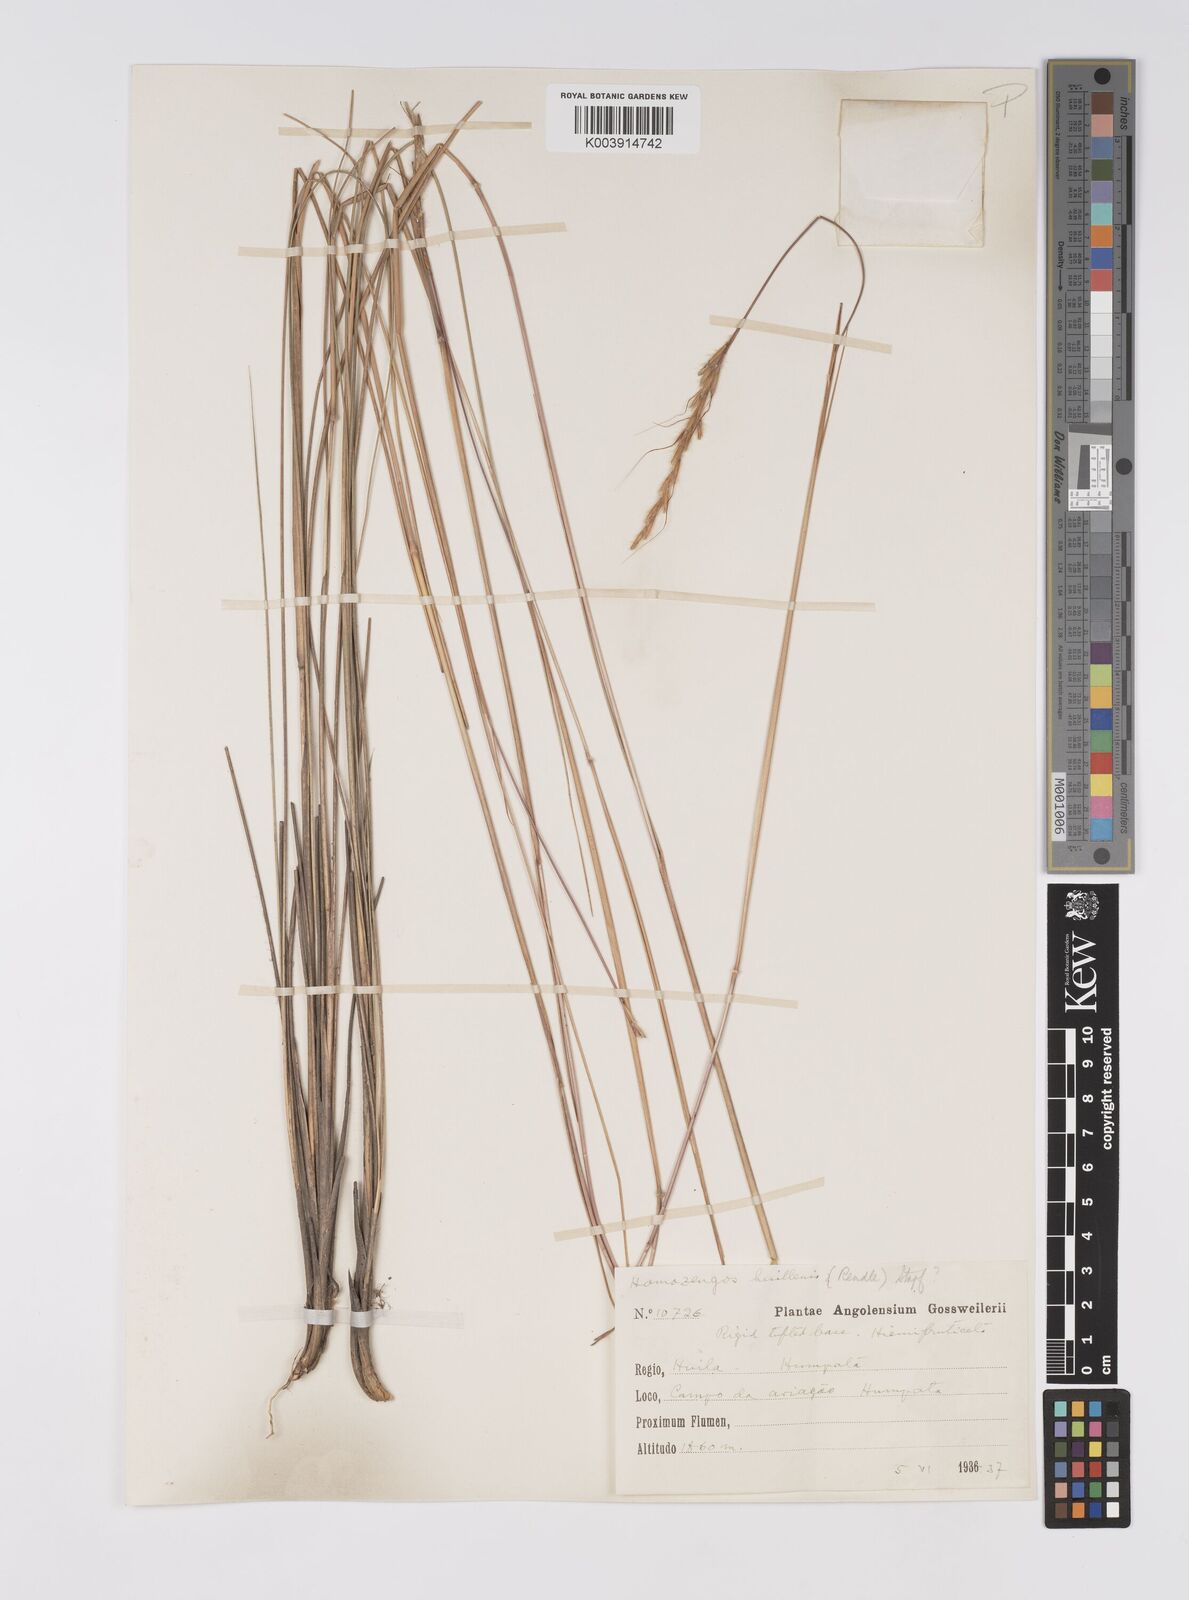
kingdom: Plantae
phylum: Tracheophyta
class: Liliopsida
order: Poales
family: Poaceae
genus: Homozeugos
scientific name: Homozeugos huillense
